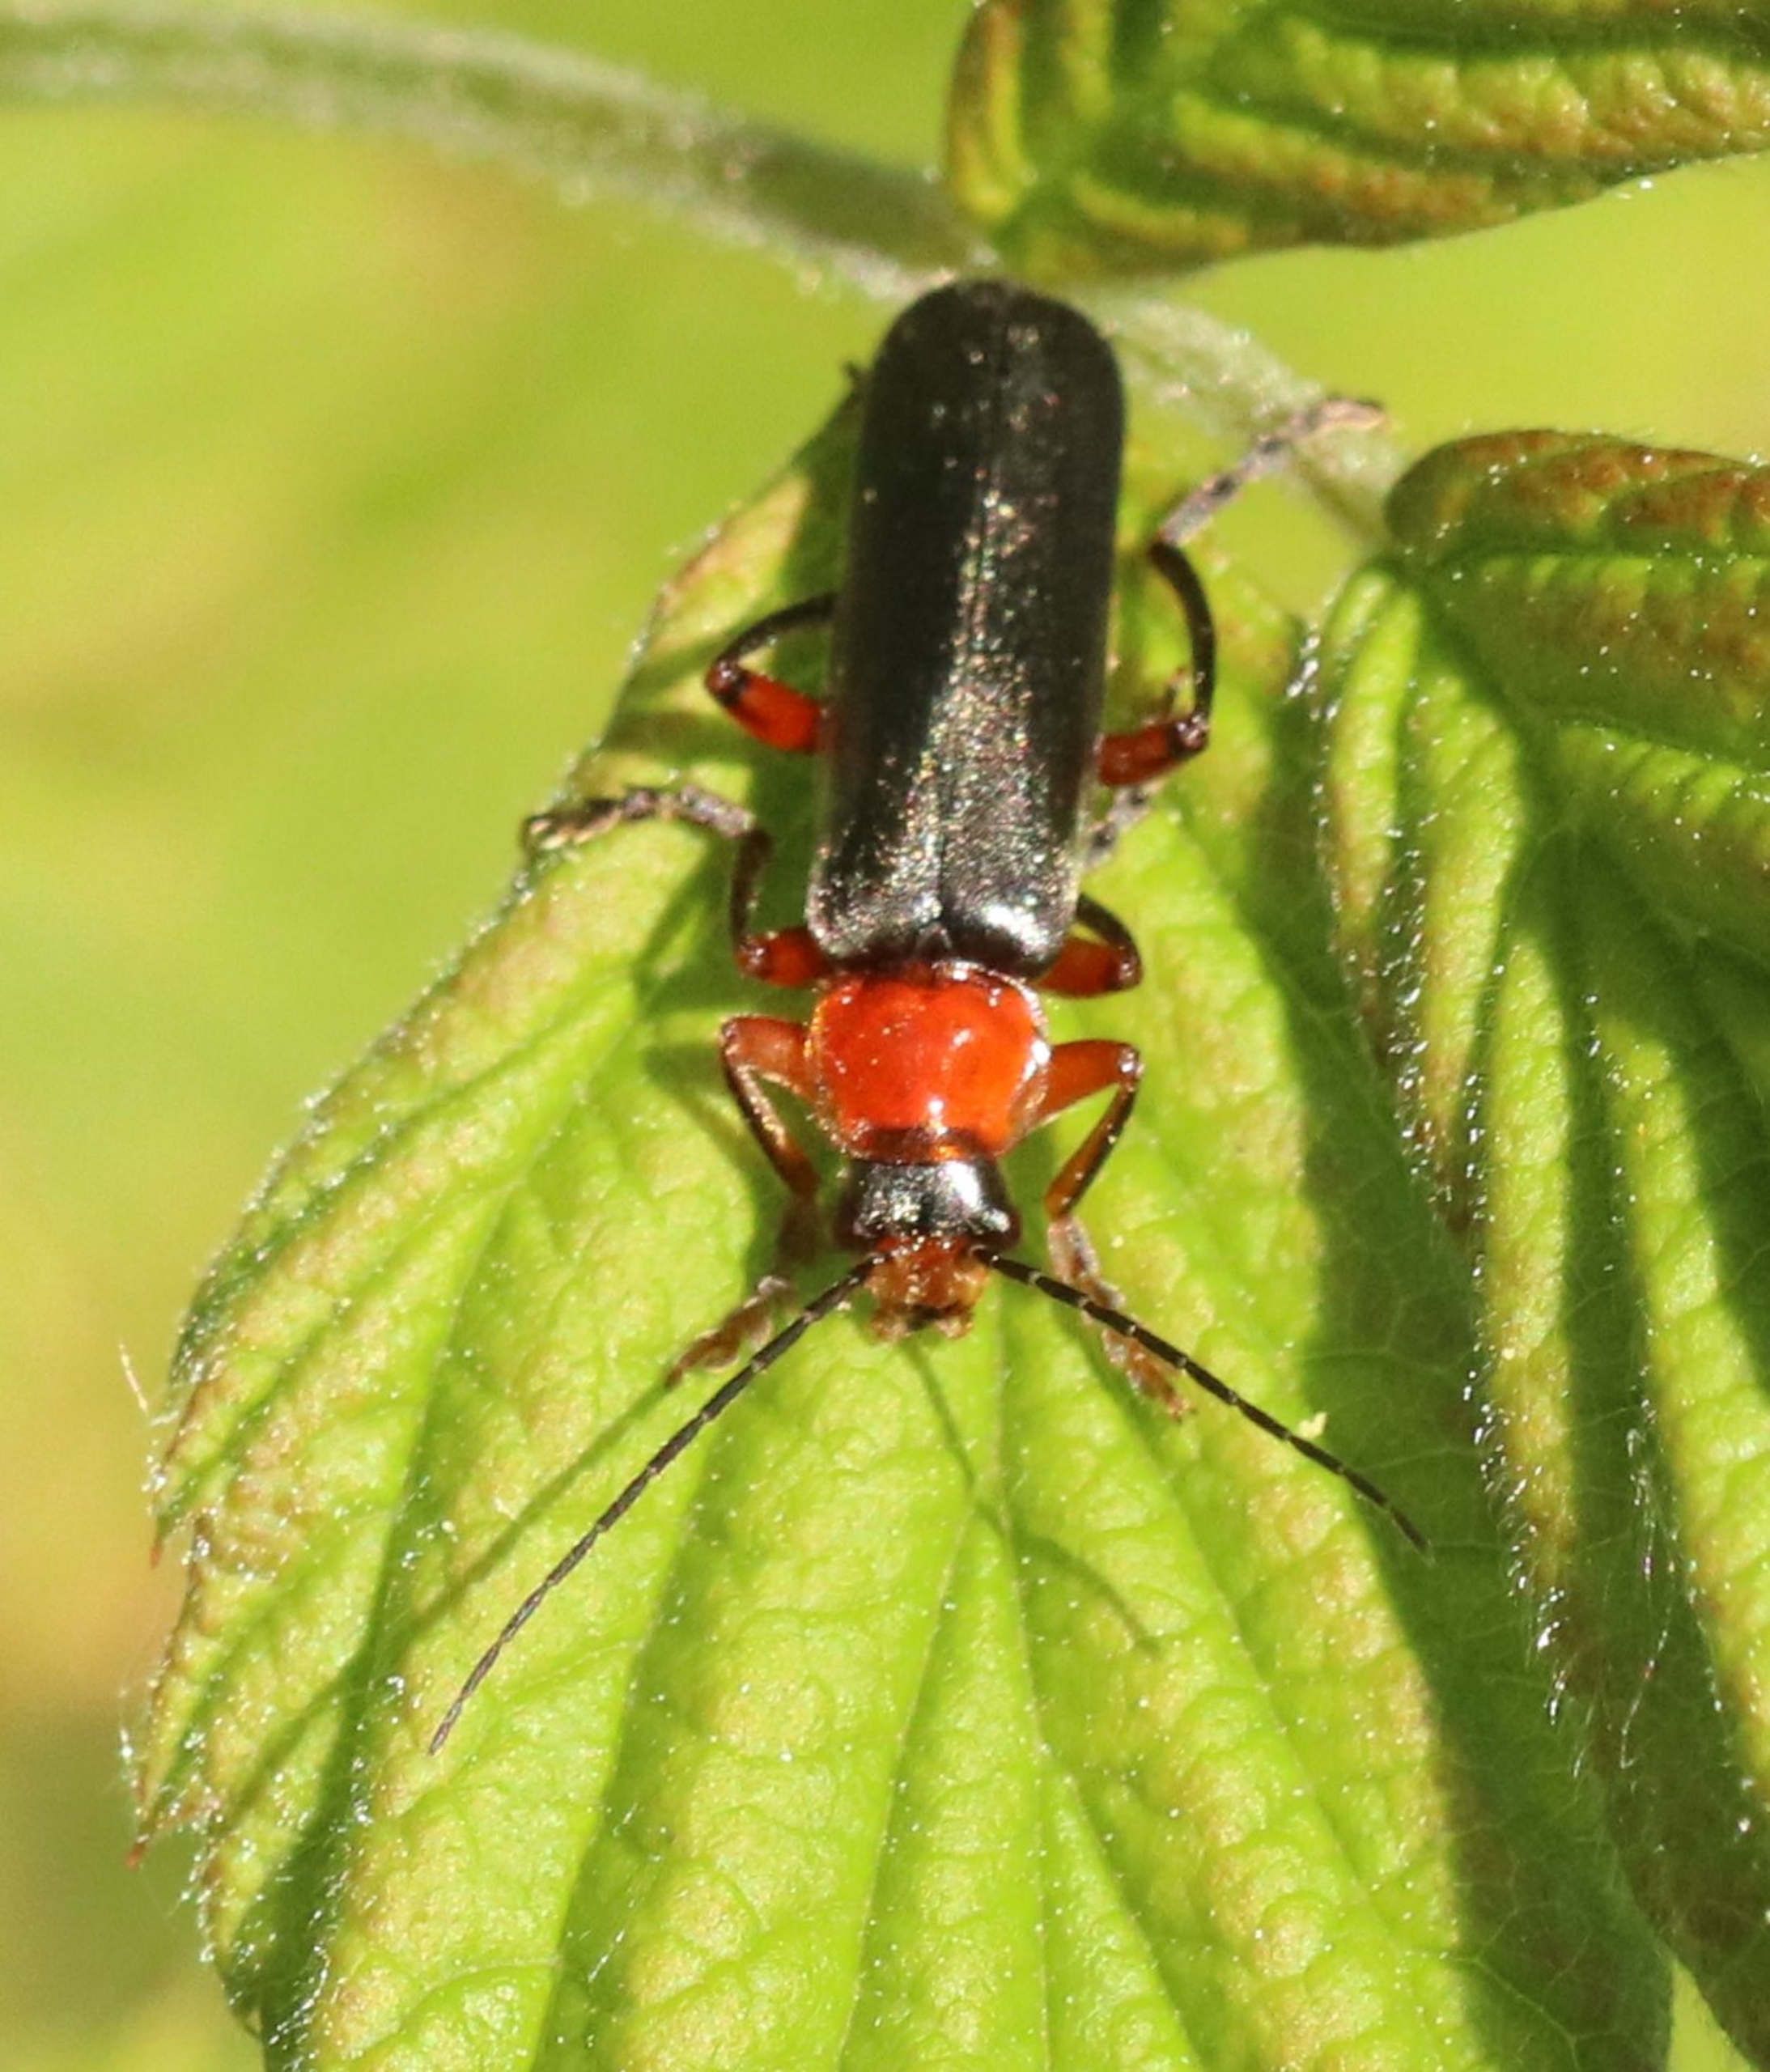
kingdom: Animalia
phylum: Arthropoda
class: Insecta
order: Coleoptera
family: Cantharidae
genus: Cantharis
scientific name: Cantharis pellucida
